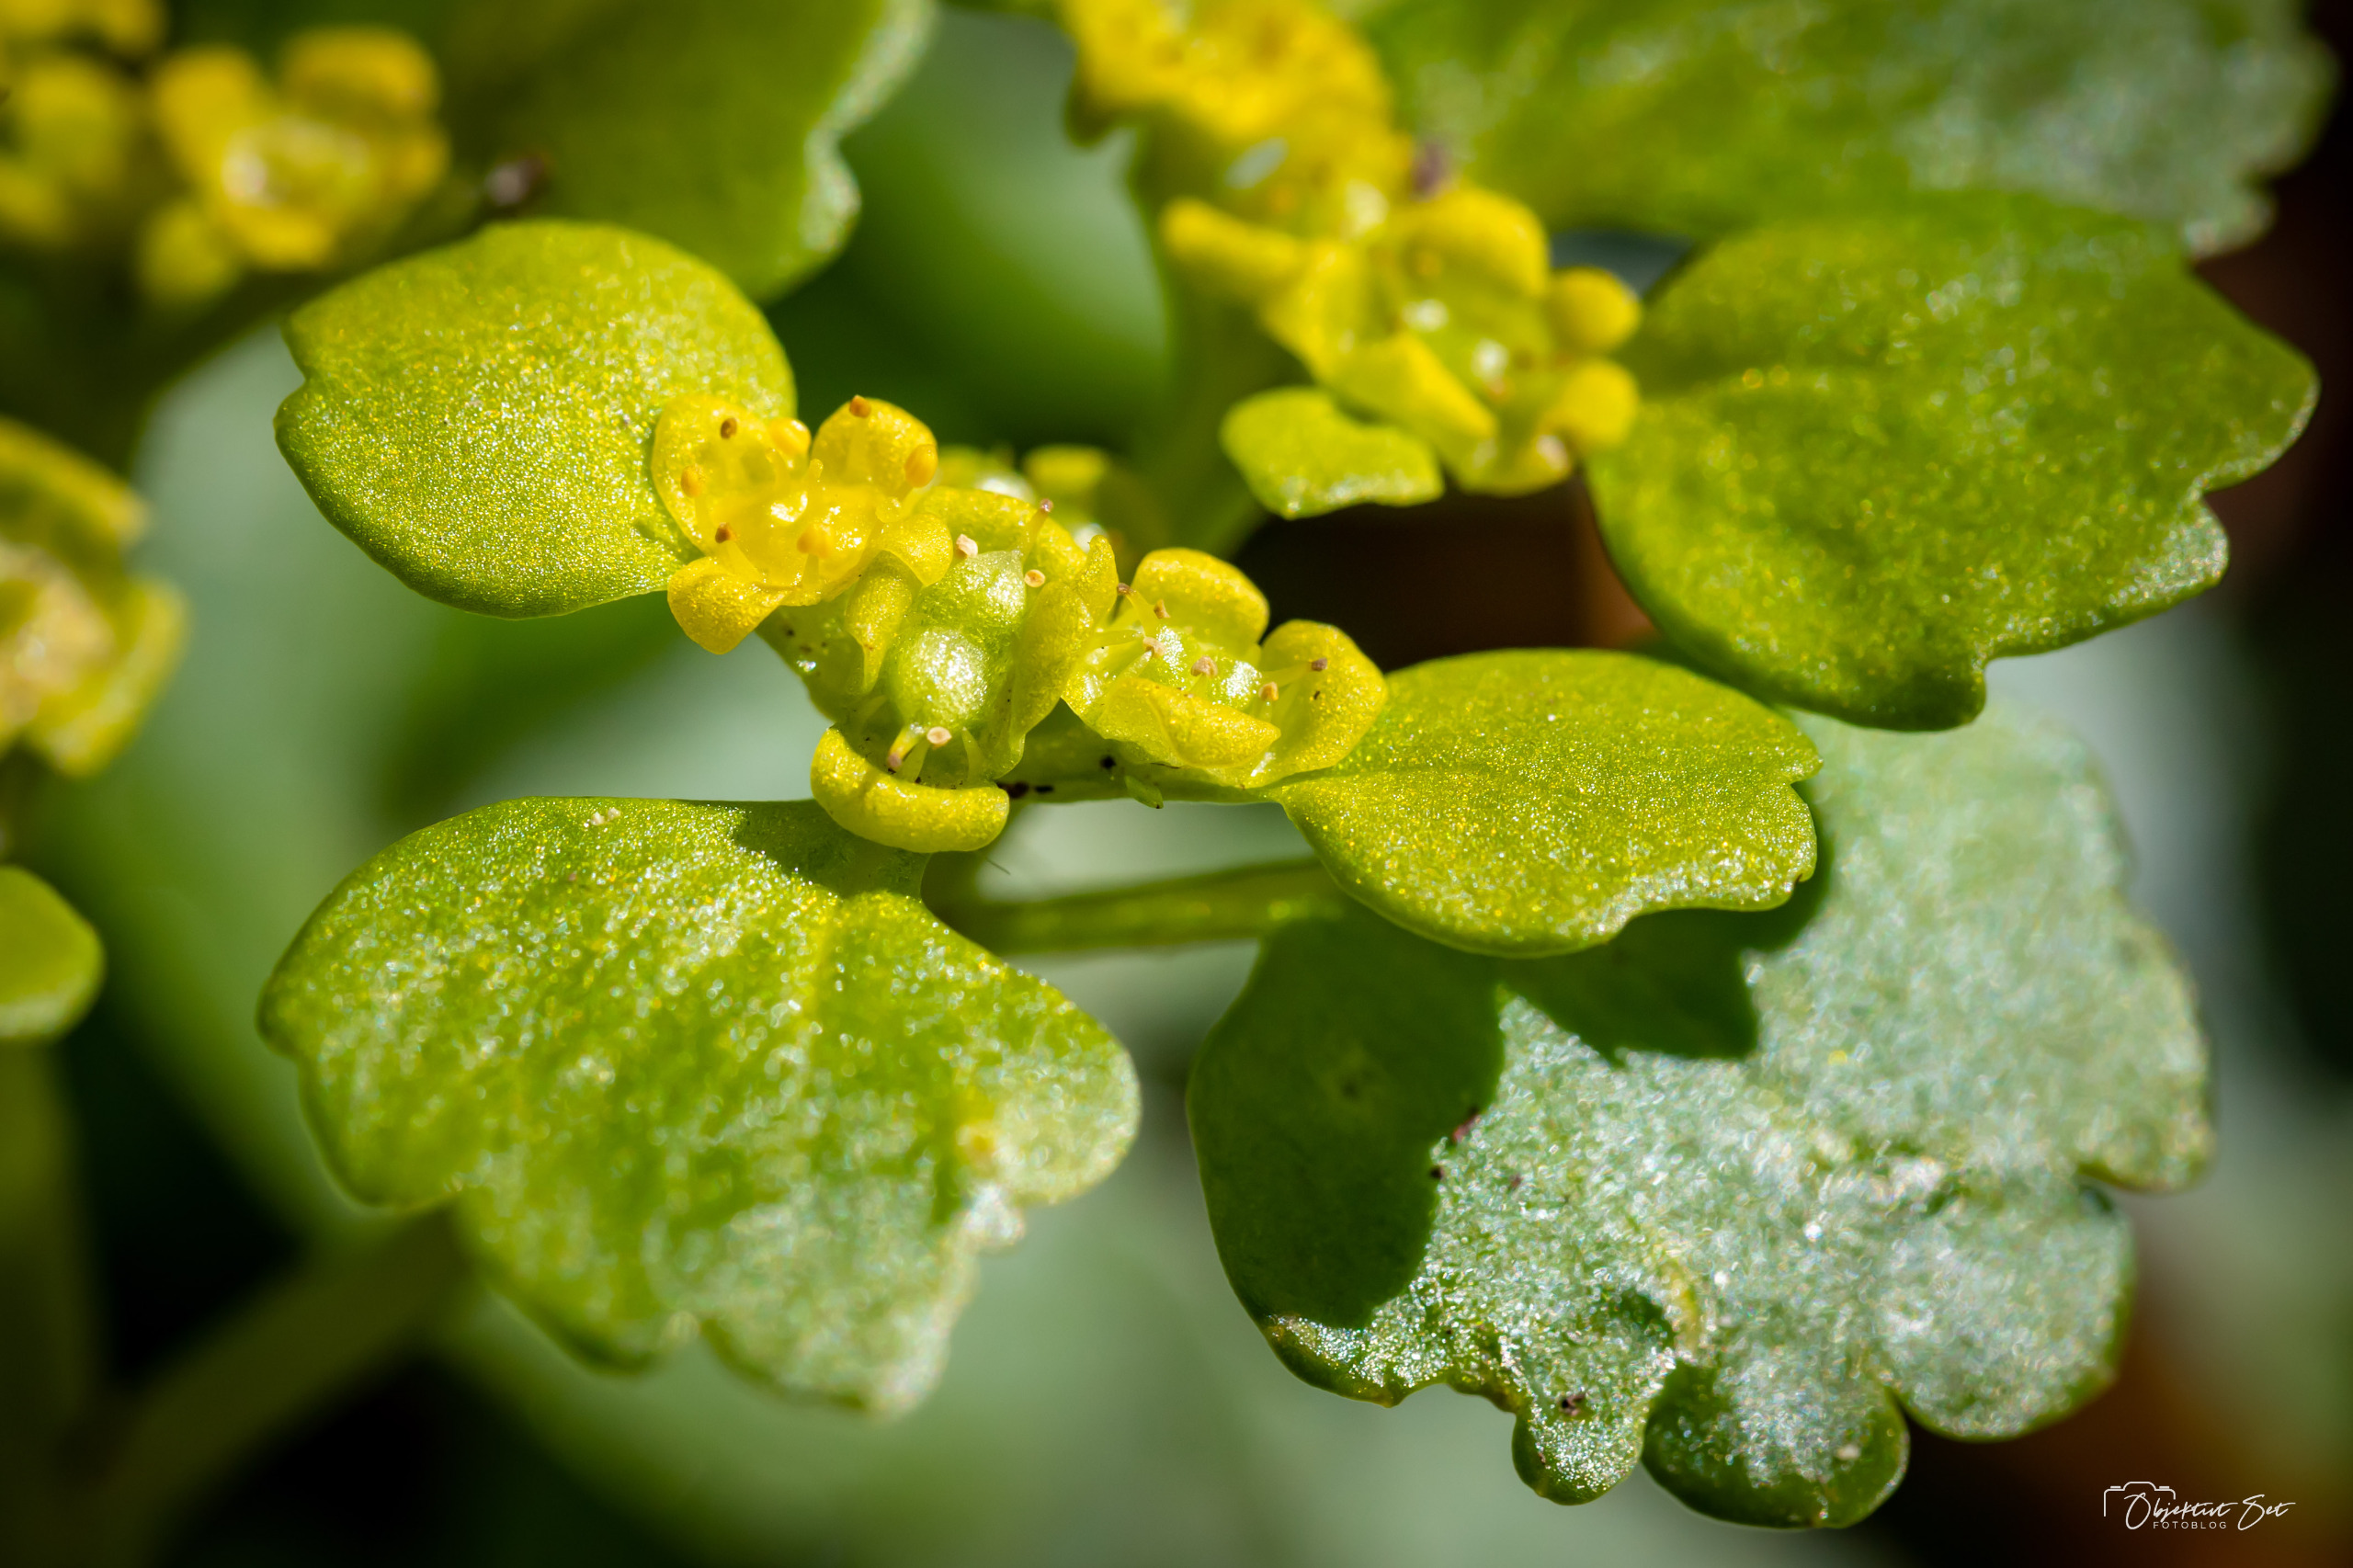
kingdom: Plantae
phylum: Tracheophyta
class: Magnoliopsida
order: Saxifragales
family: Saxifragaceae
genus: Chrysosplenium
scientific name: Chrysosplenium alternifolium
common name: Almindelig milturt
